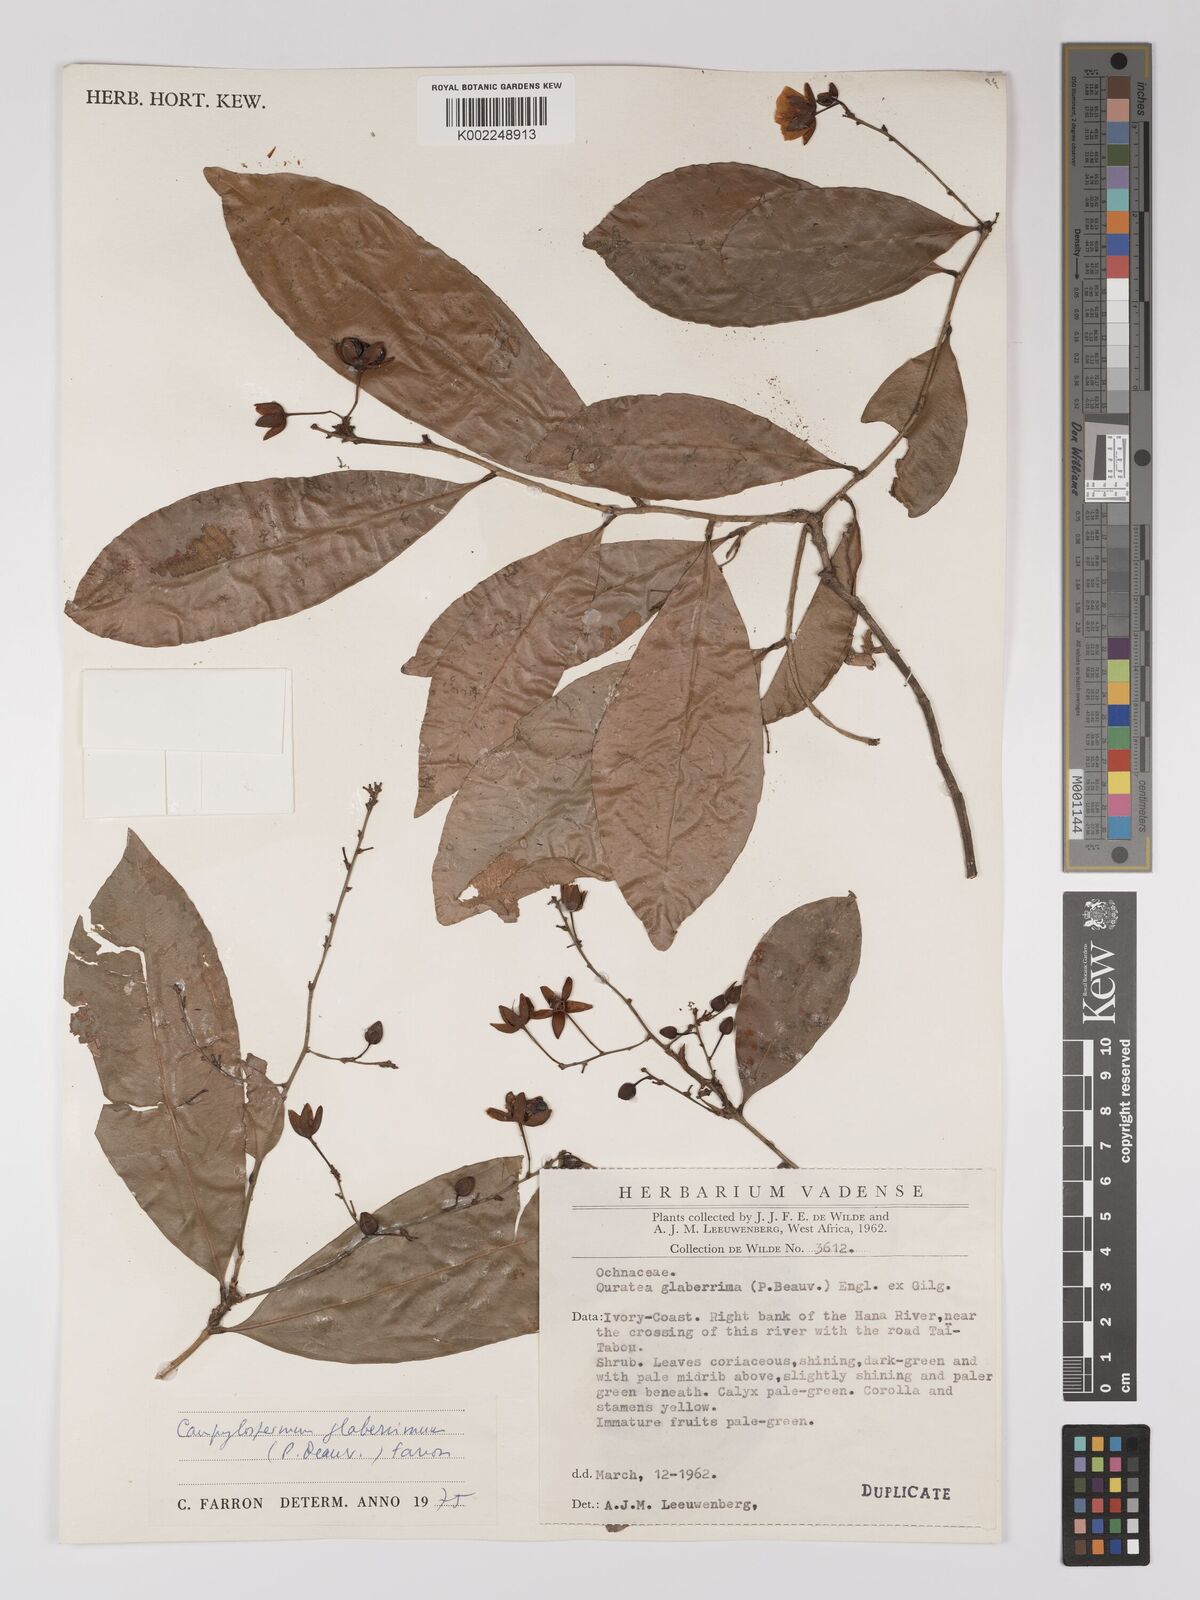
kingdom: Plantae
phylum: Tracheophyta
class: Magnoliopsida
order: Malpighiales
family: Ochnaceae
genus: Campylospermum
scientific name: Campylospermum glaberrimum
